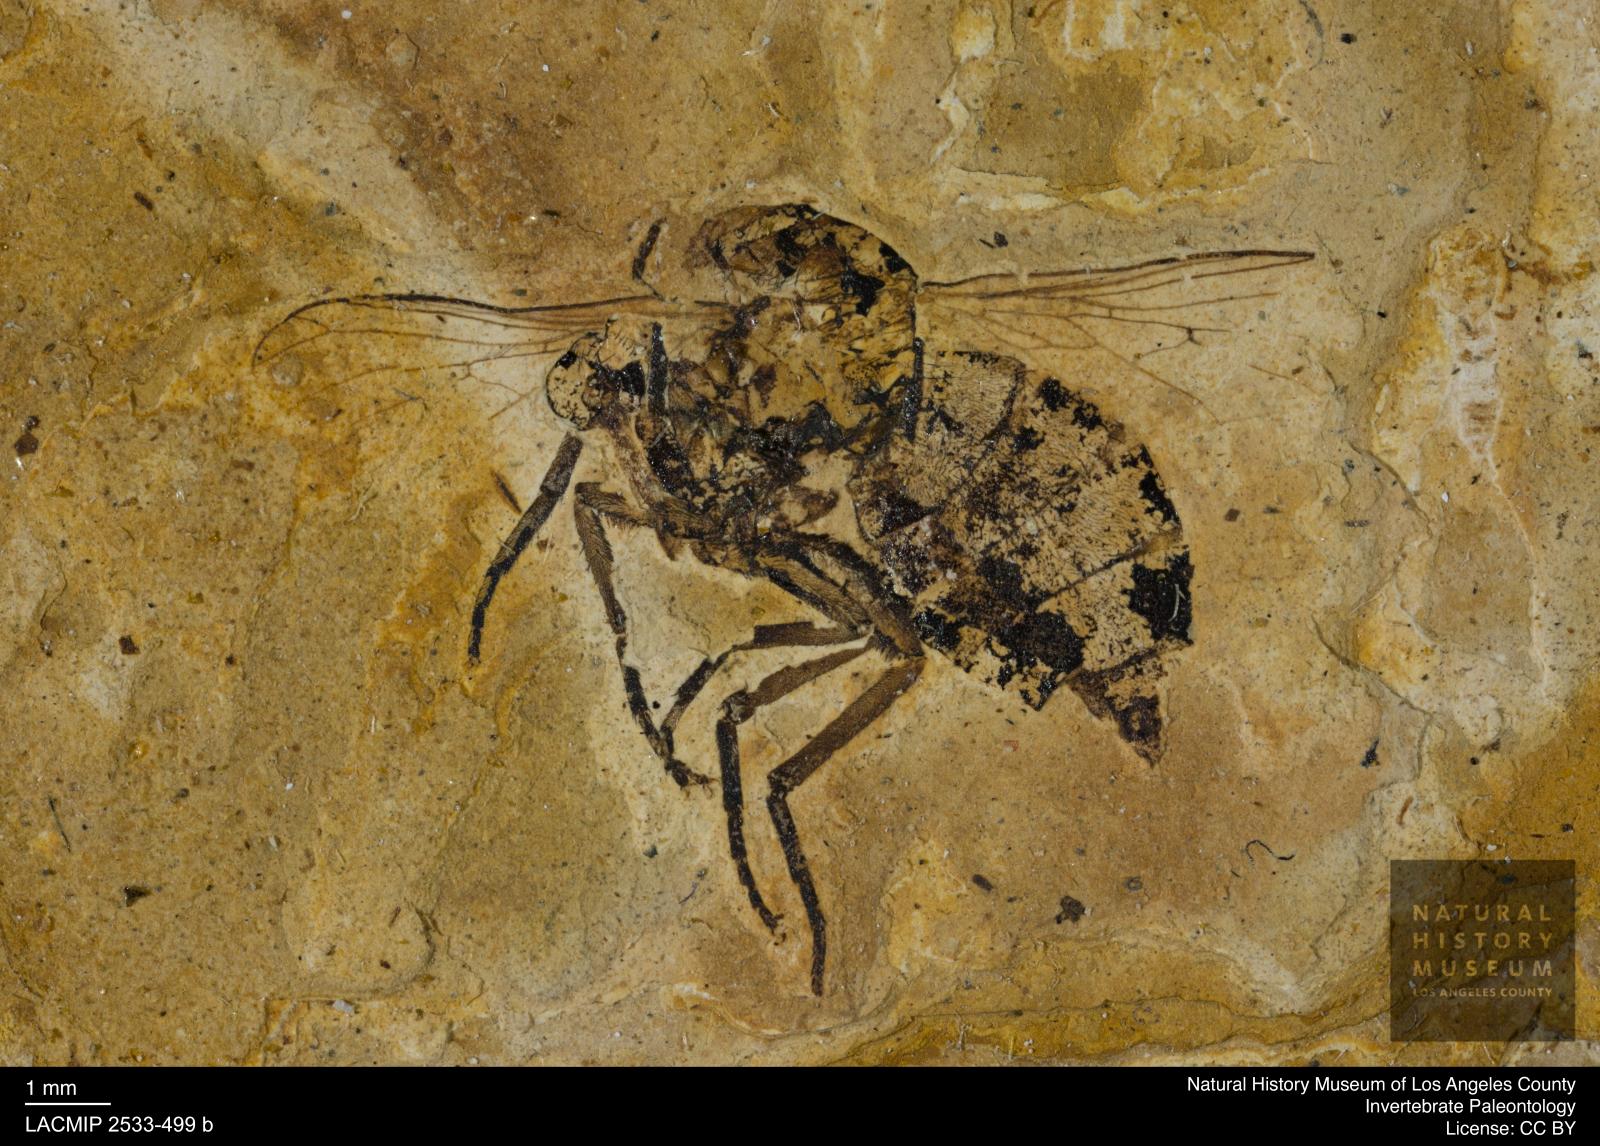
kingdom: Animalia
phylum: Arthropoda
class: Insecta
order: Diptera
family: Empididae
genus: Empis
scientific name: Empis spinifera
